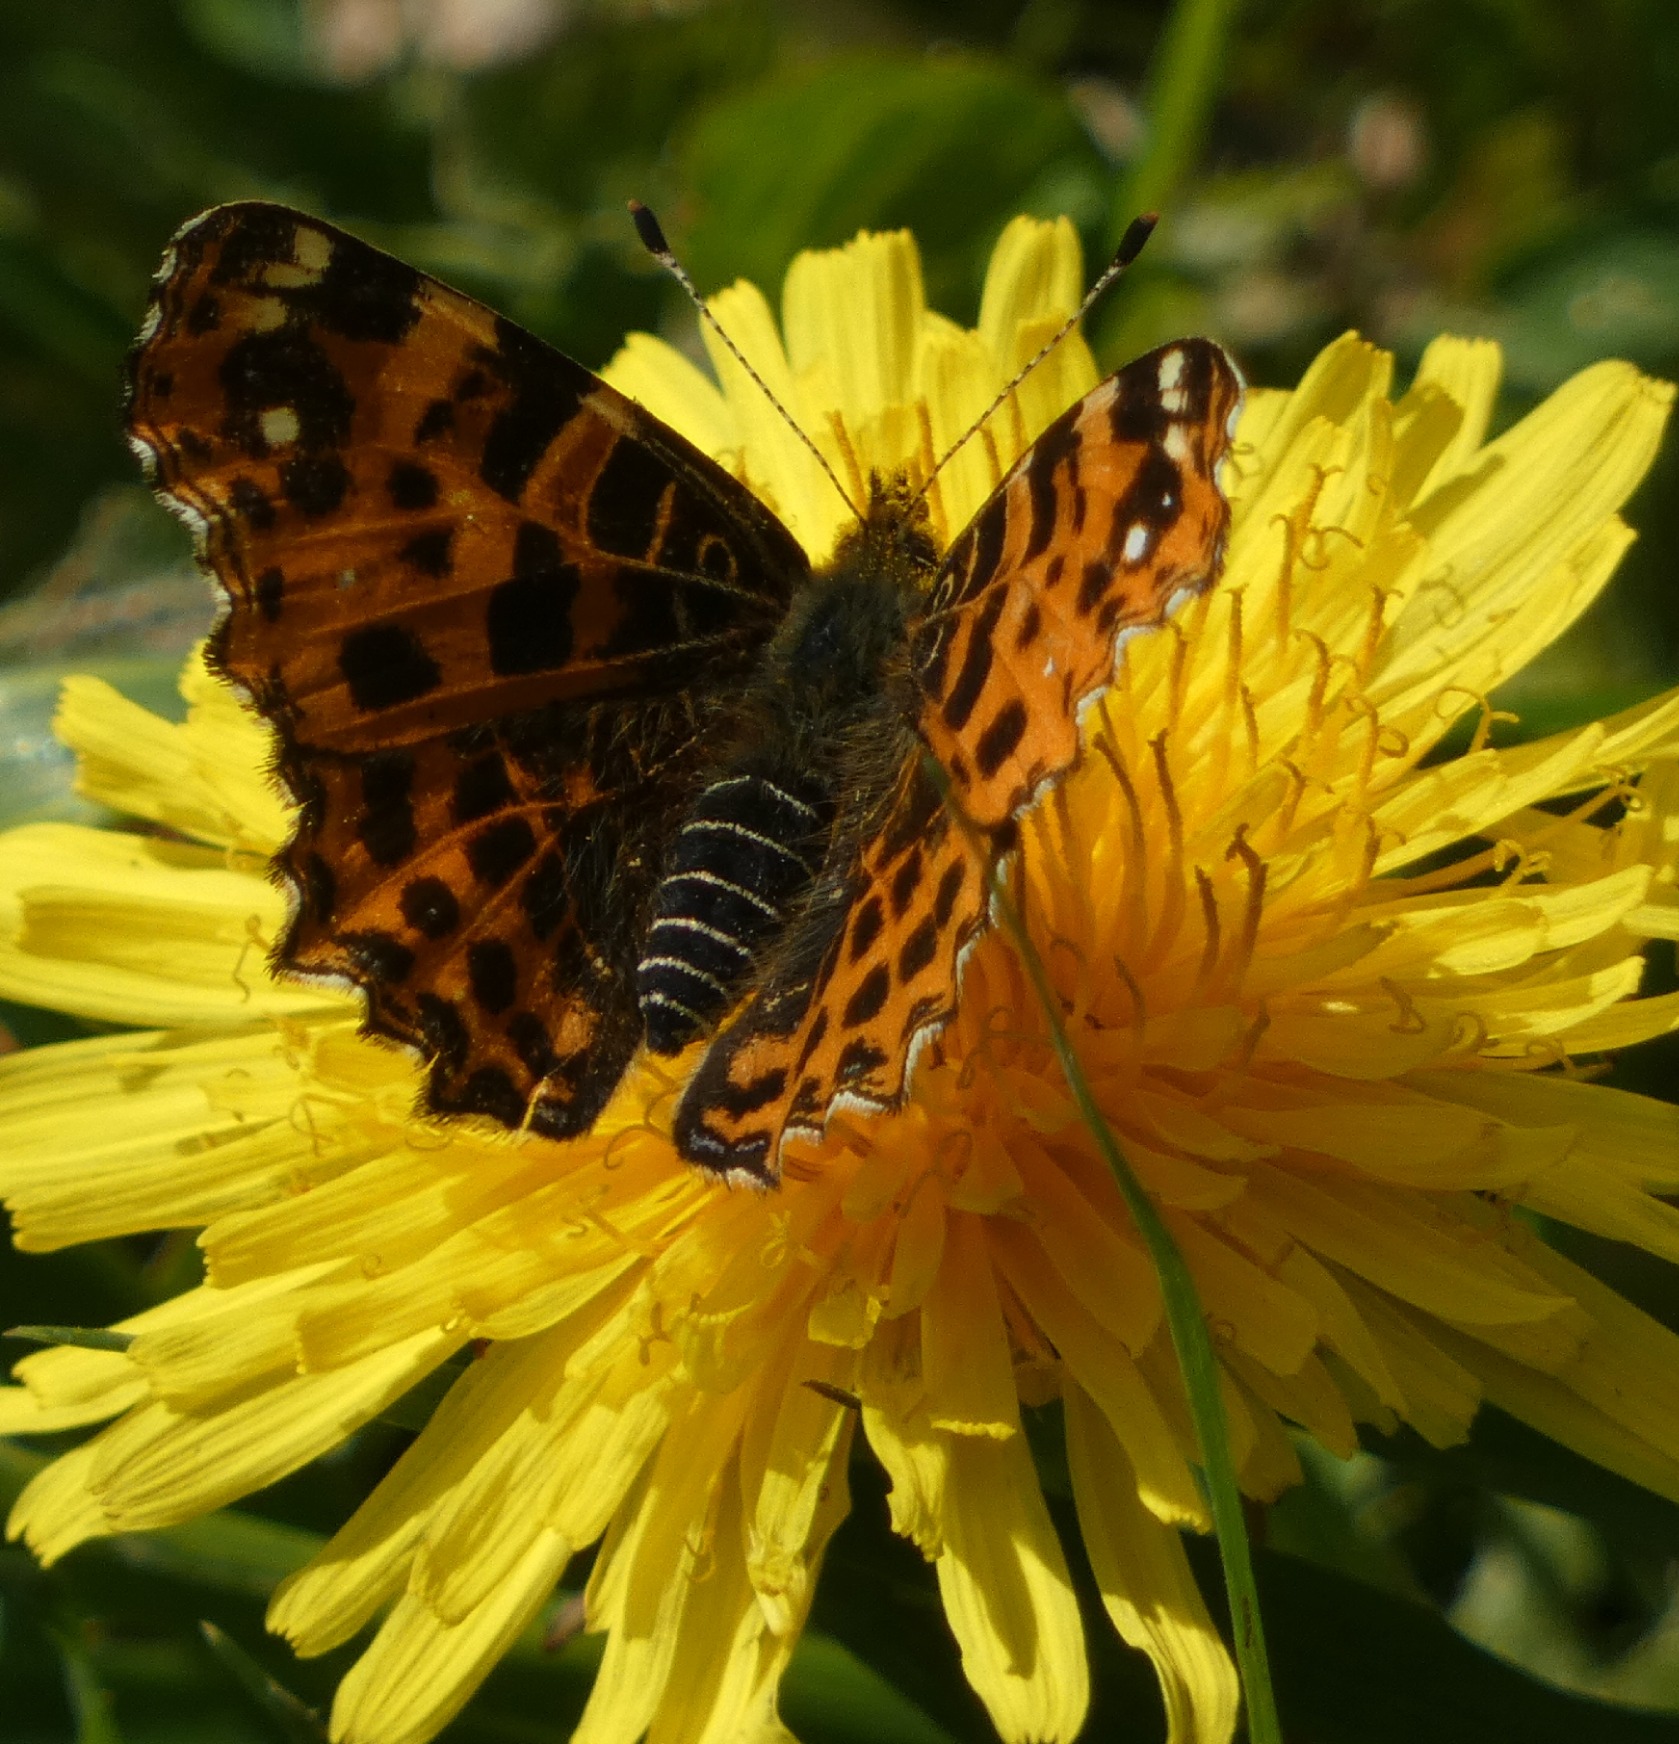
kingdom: Animalia
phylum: Arthropoda
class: Insecta
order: Lepidoptera
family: Nymphalidae
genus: Araschnia
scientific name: Araschnia levana
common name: Nældesommerfugl
